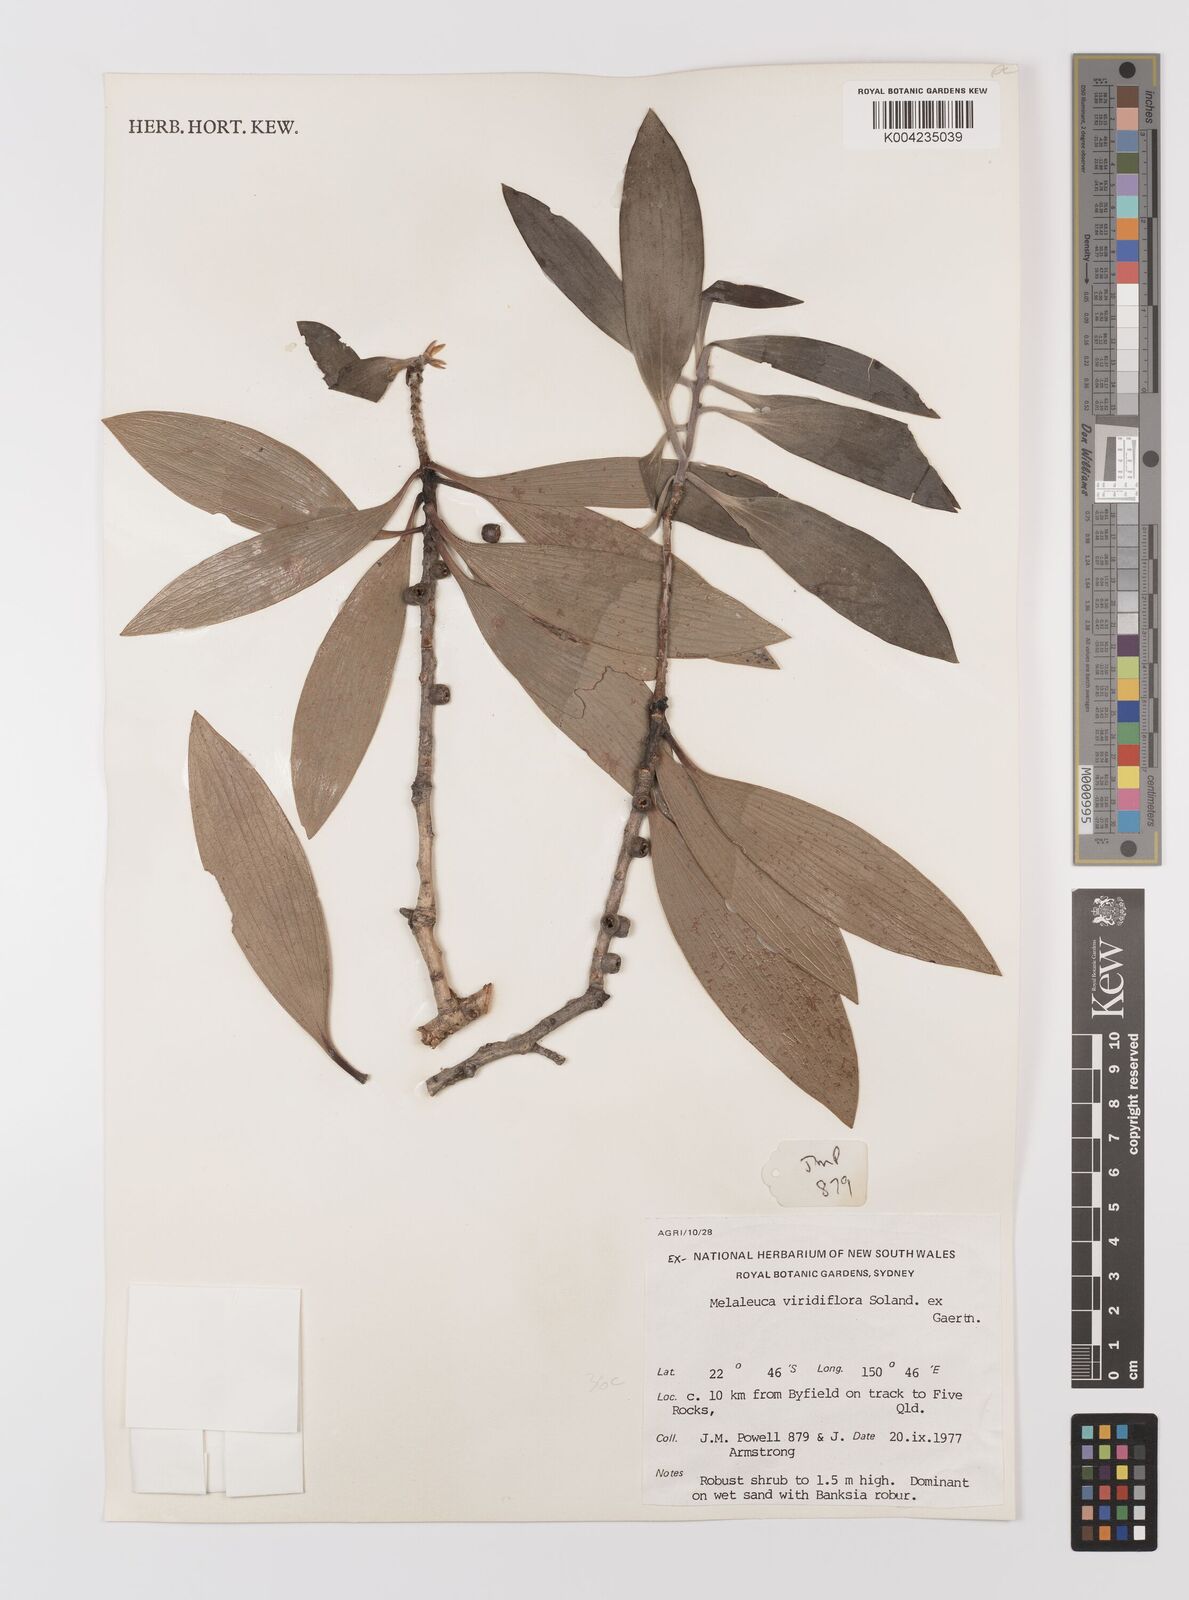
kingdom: Plantae
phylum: Tracheophyta
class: Magnoliopsida
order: Myrtales
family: Myrtaceae
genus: Melaleuca
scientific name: Melaleuca viridiflora
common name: Brown-leaved paperbark
